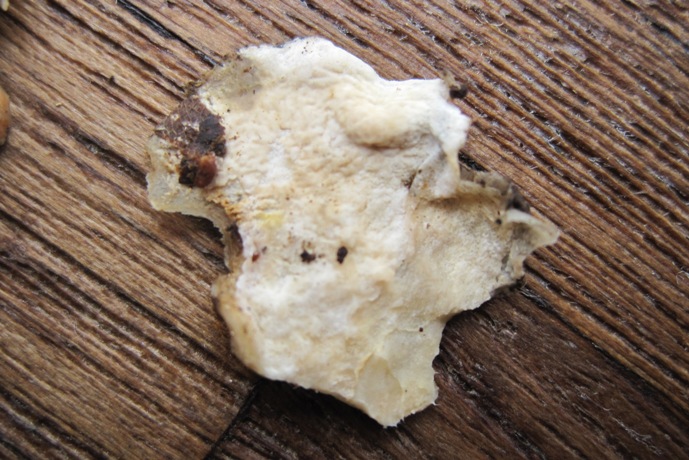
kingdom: Fungi
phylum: Basidiomycota
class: Agaricomycetes
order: Polyporales
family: Irpicaceae
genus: Byssomerulius
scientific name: Byssomerulius corium
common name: læder-åresvamp
